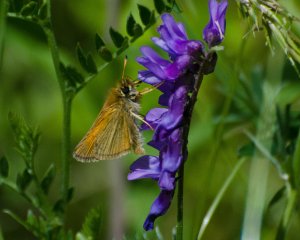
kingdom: Animalia
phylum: Arthropoda
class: Insecta
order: Lepidoptera
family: Hesperiidae
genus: Polites
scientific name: Polites themistocles
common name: Tawny-edged Skipper
